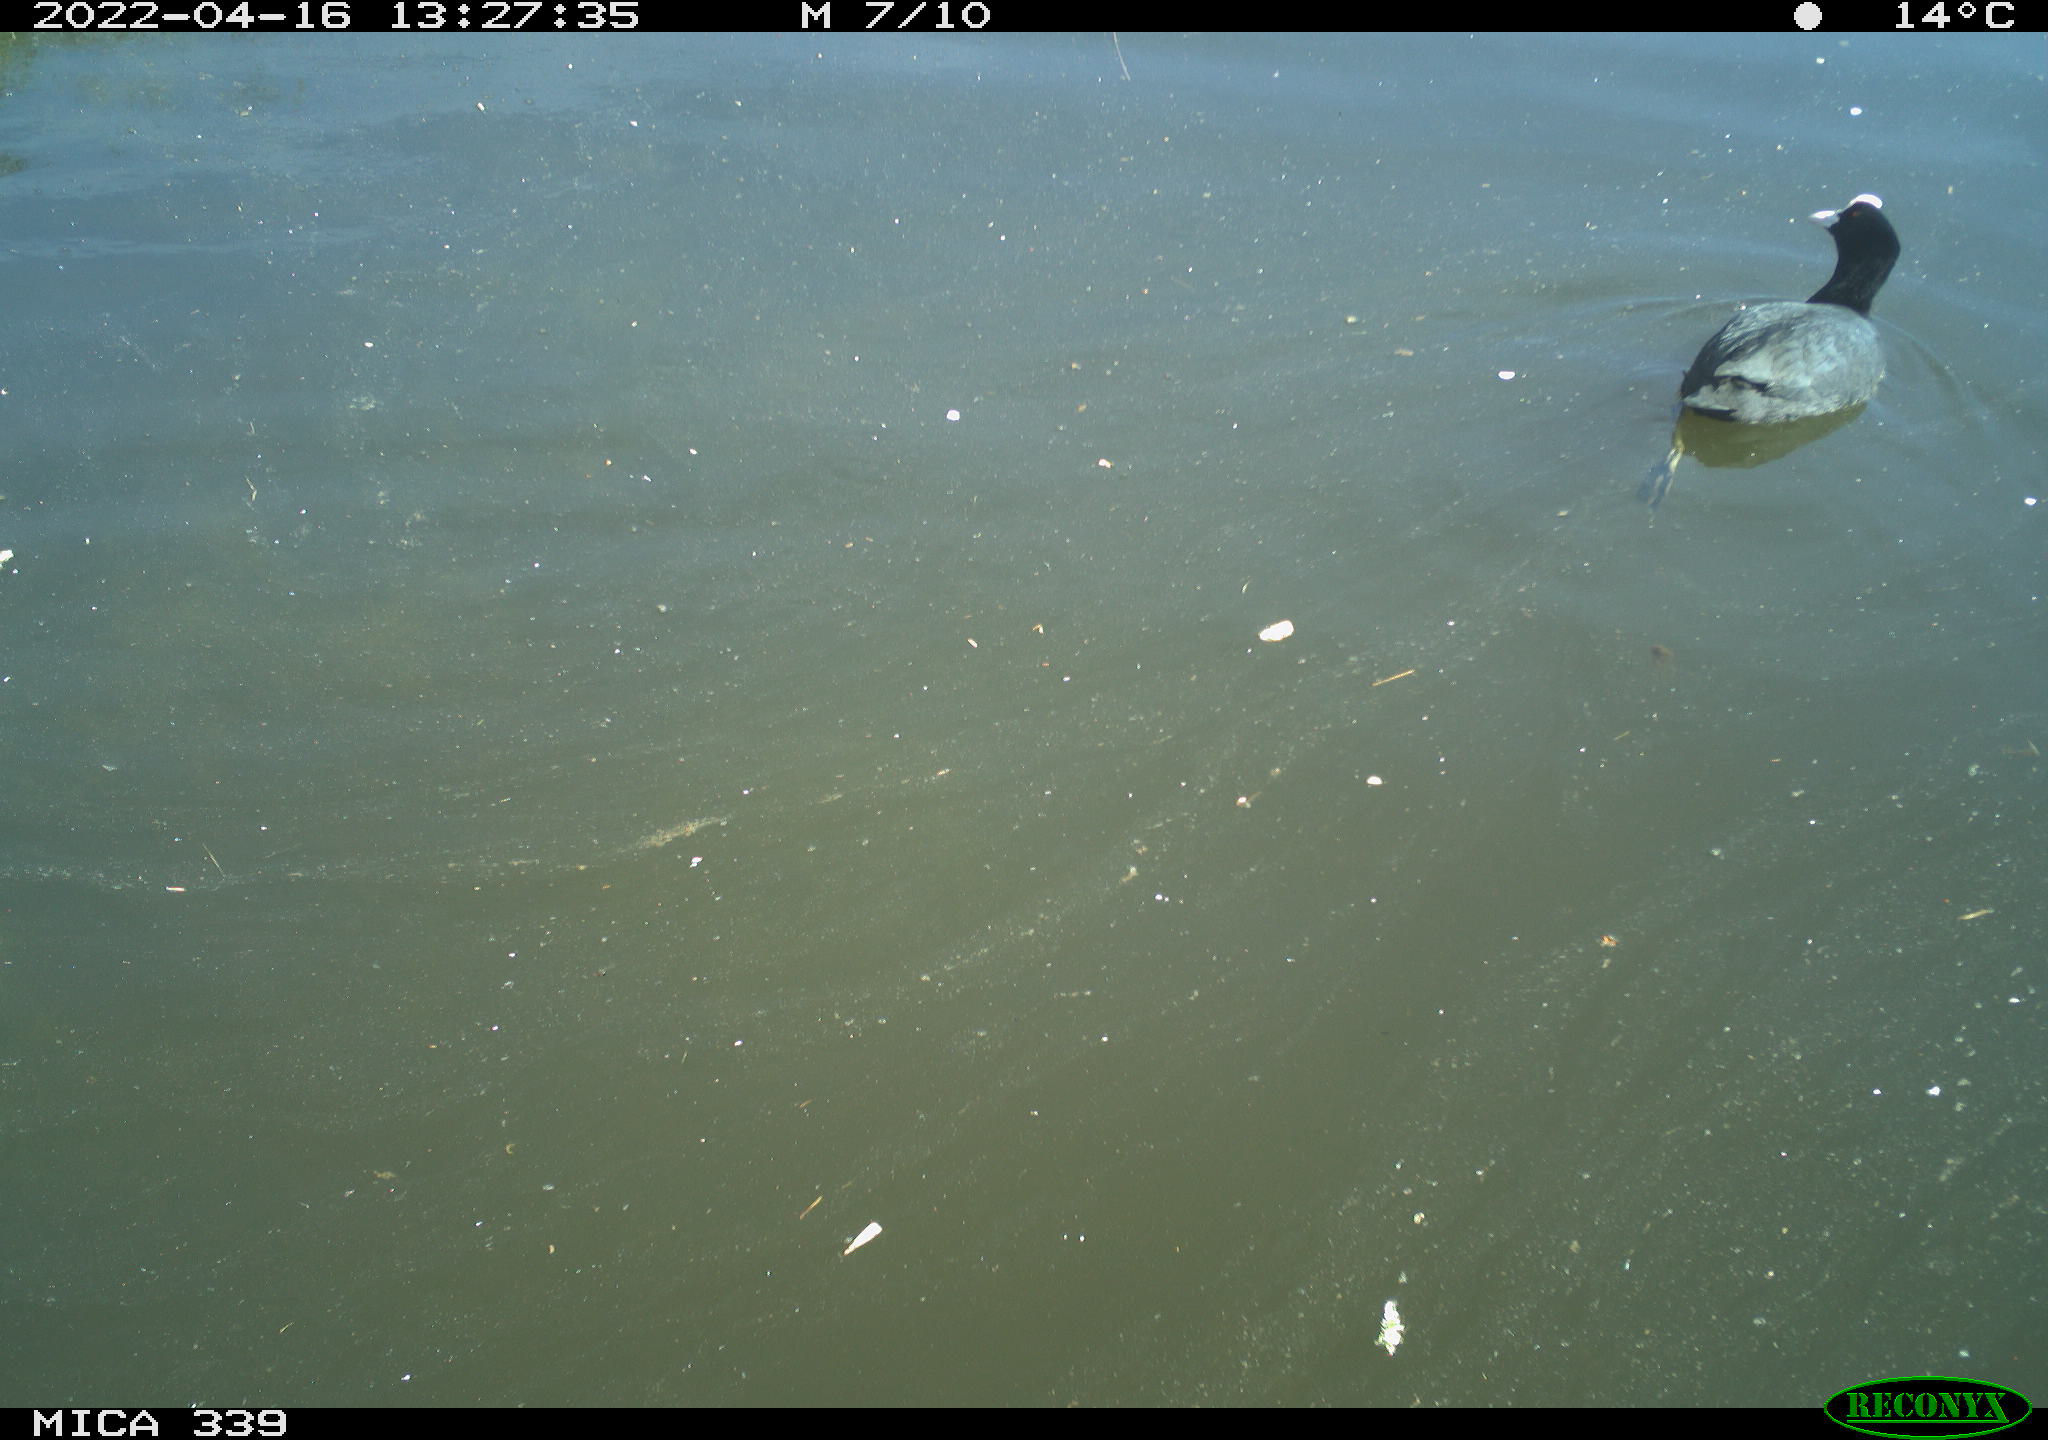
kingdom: Animalia
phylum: Chordata
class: Aves
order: Gruiformes
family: Rallidae
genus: Fulica
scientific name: Fulica atra
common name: Eurasian coot
